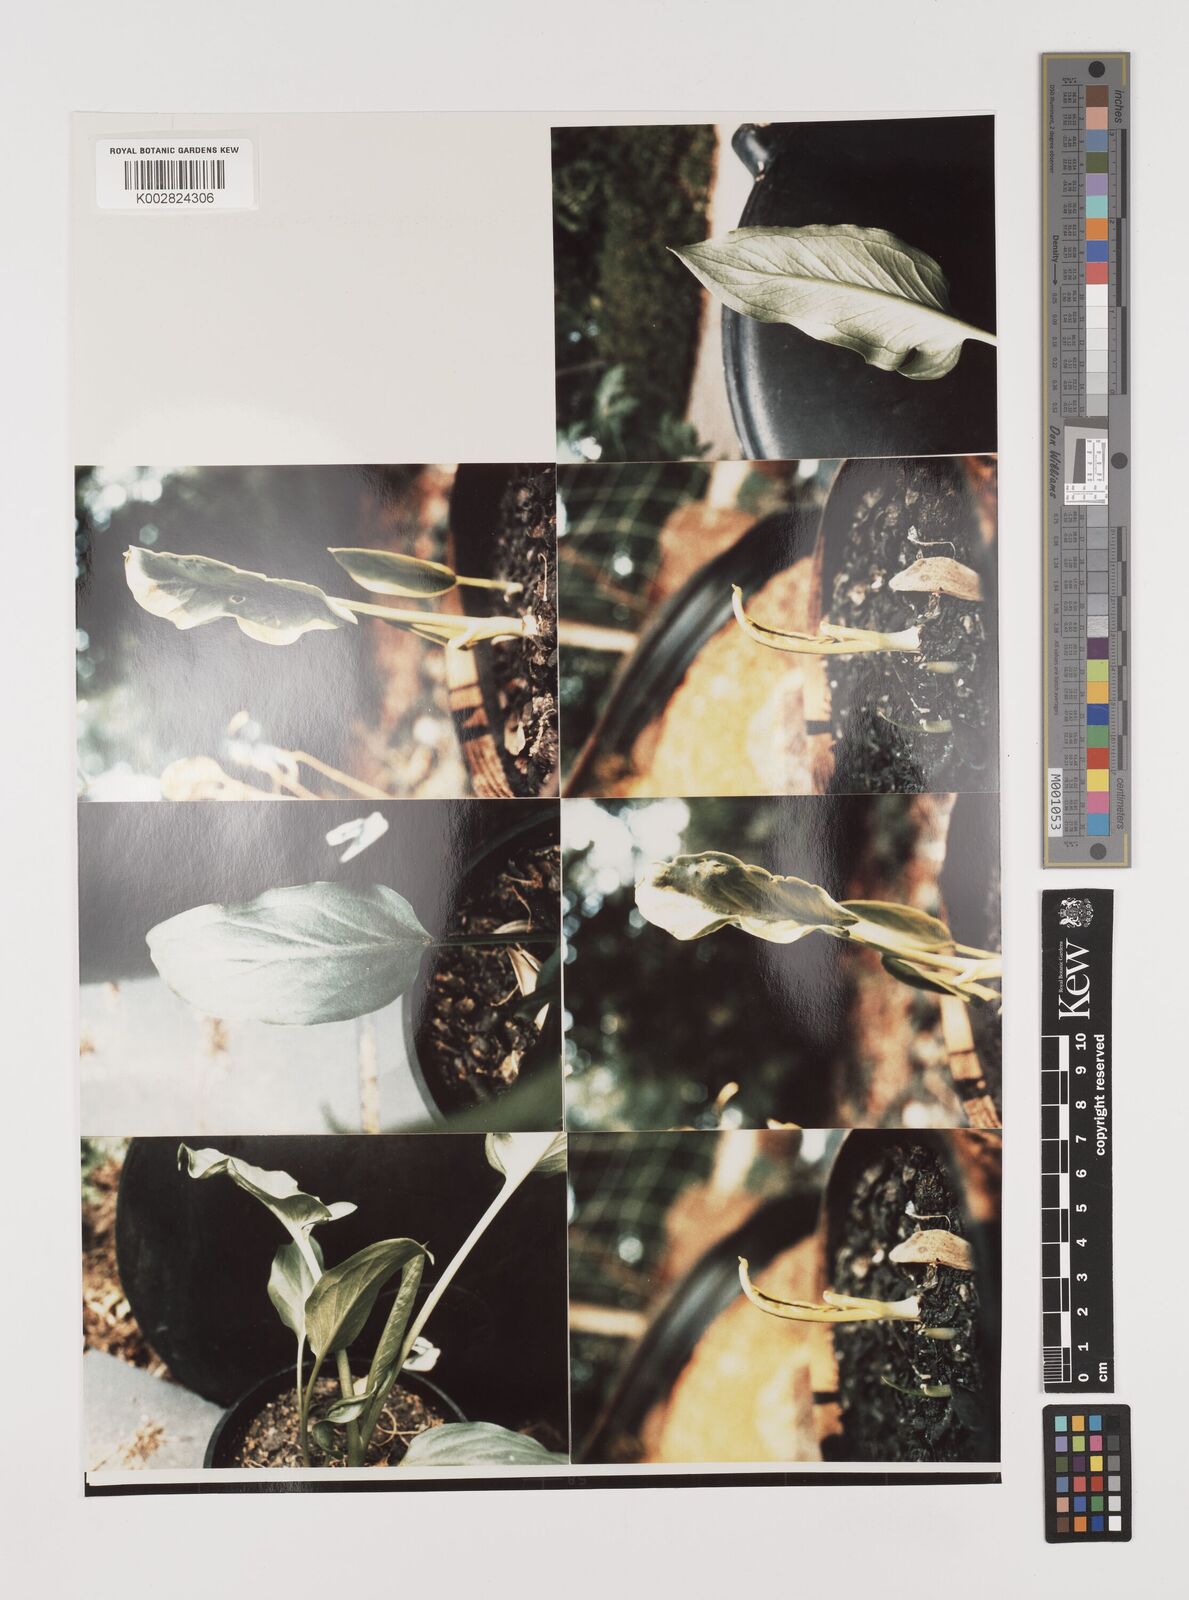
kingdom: Plantae
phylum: Tracheophyta
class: Liliopsida
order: Alismatales
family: Araceae
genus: Typhonium
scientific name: Typhonium alismifolium
